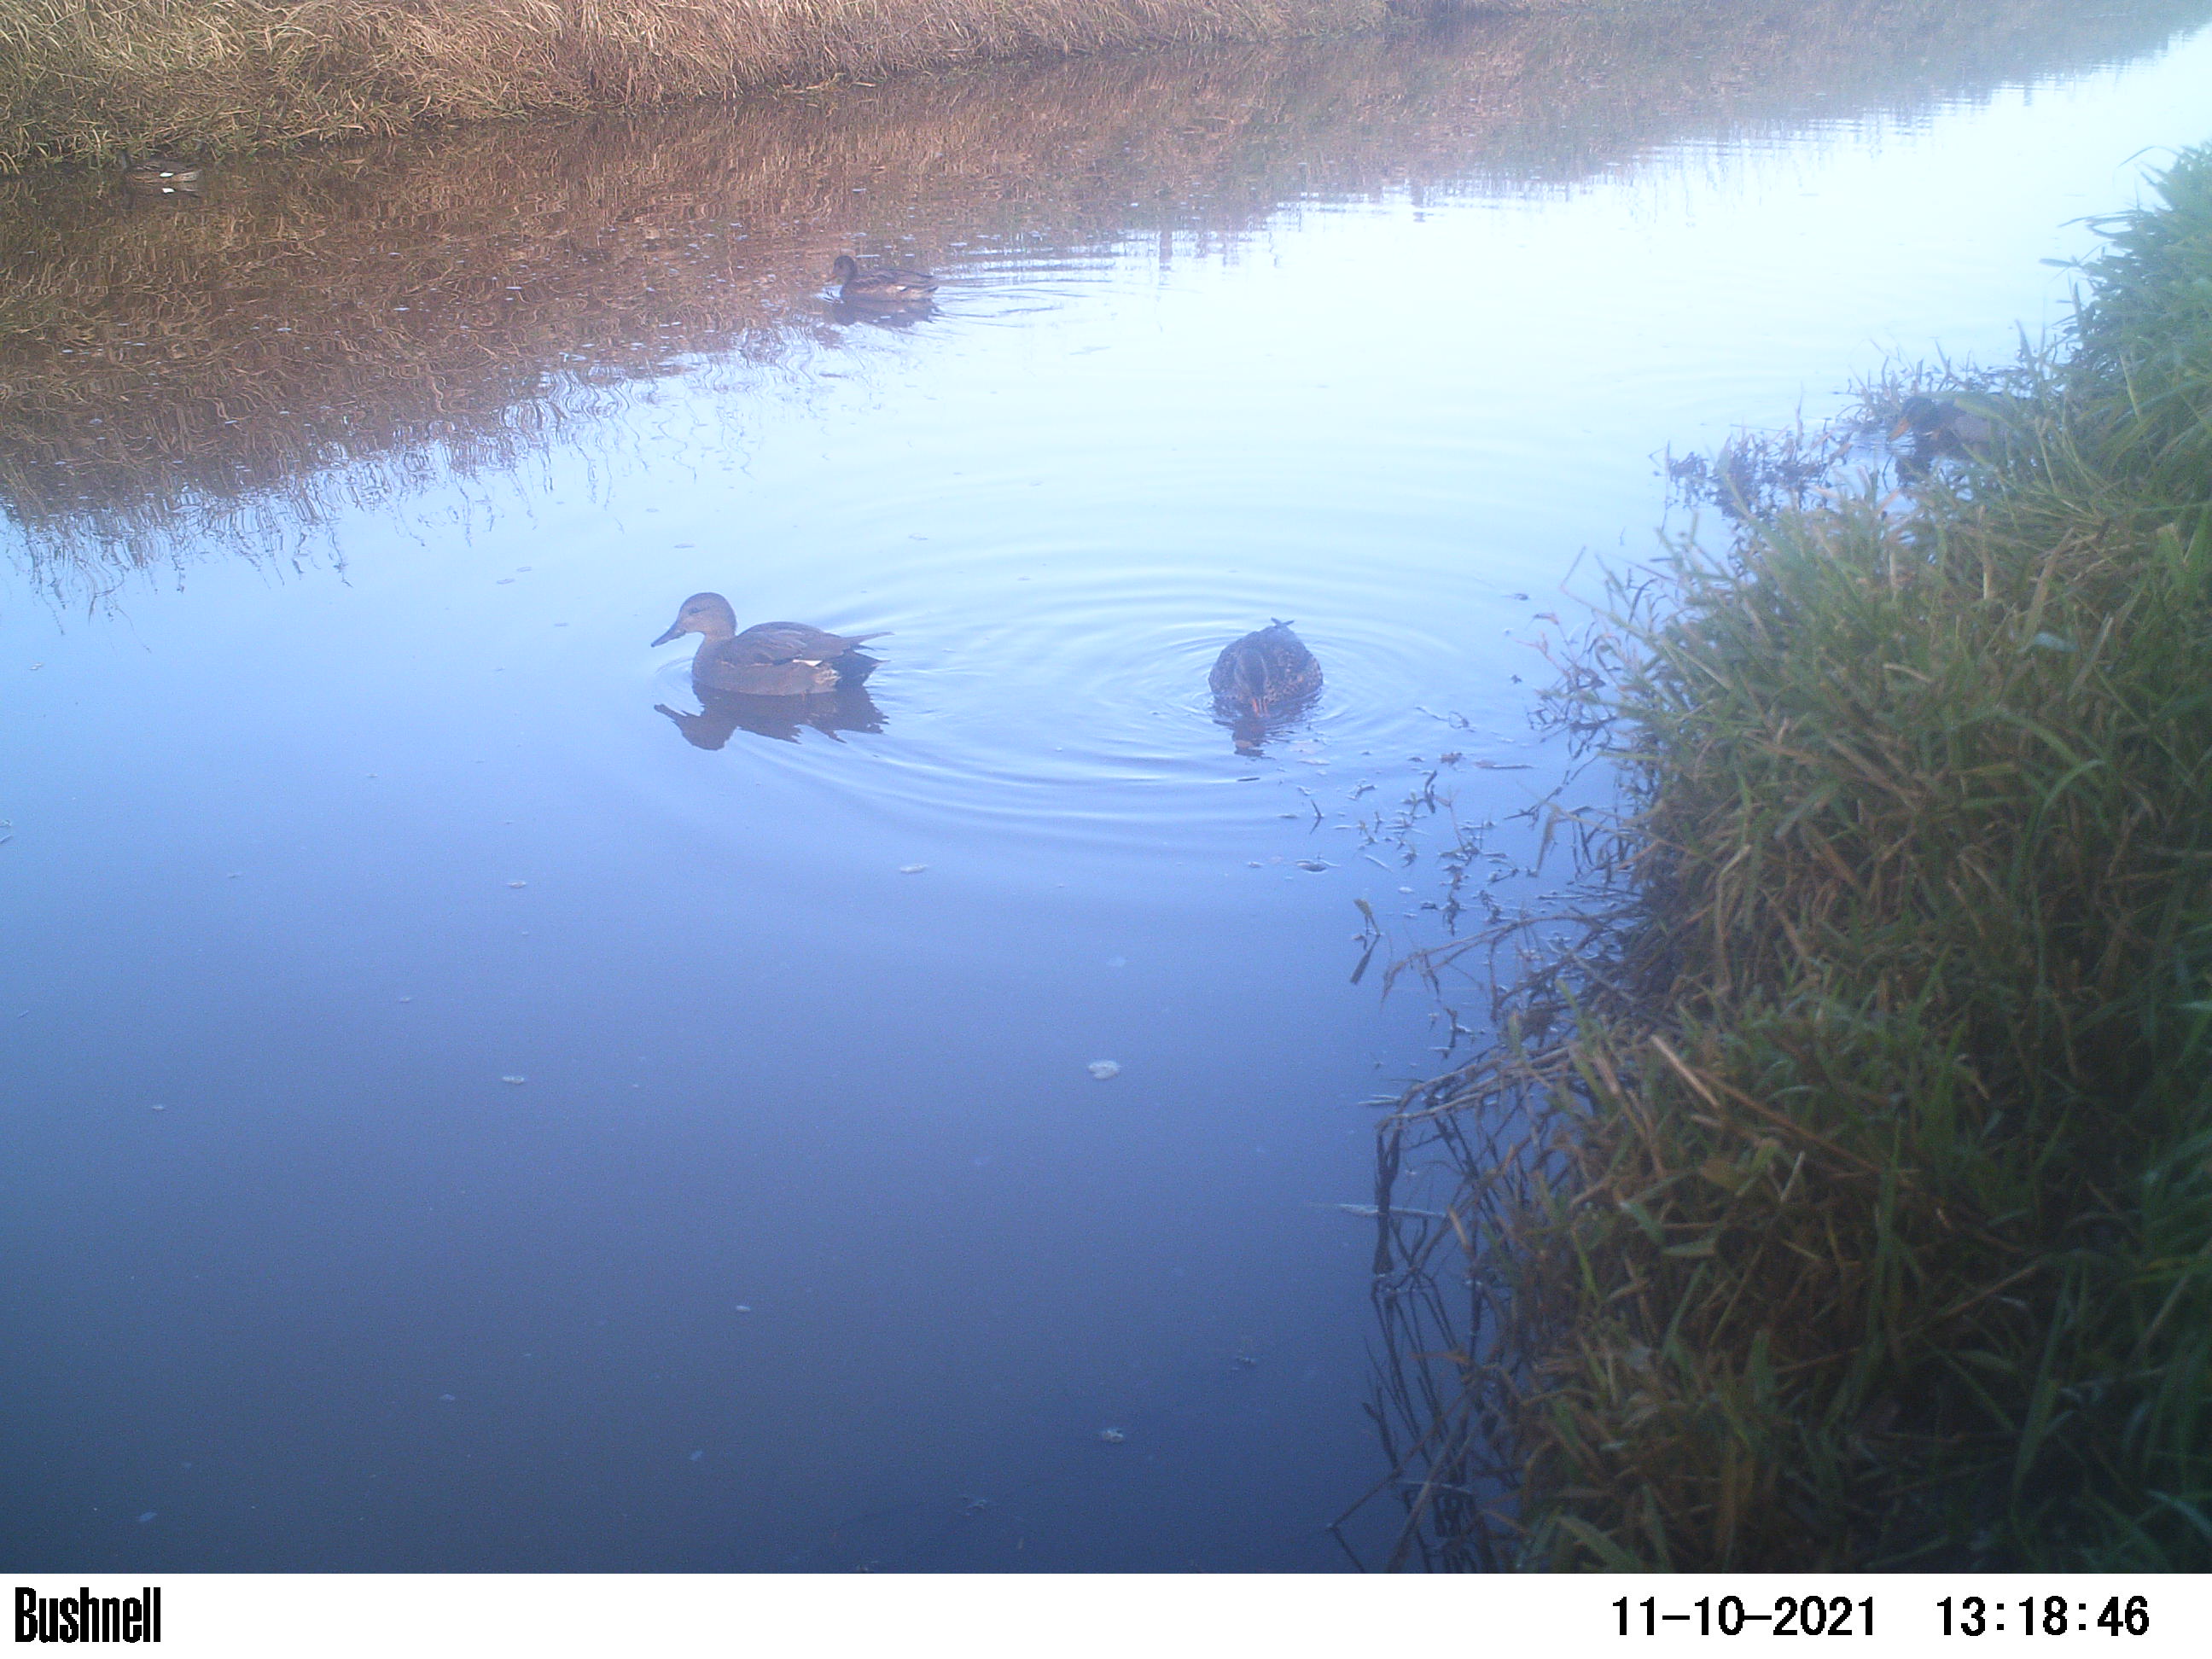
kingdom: Animalia
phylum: Chordata
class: Aves
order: Anseriformes
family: Anatidae
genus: Anas
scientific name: Anas
